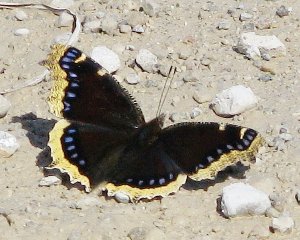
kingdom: Animalia
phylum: Arthropoda
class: Insecta
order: Lepidoptera
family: Nymphalidae
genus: Nymphalis
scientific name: Nymphalis antiopa
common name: Mourning Cloak
